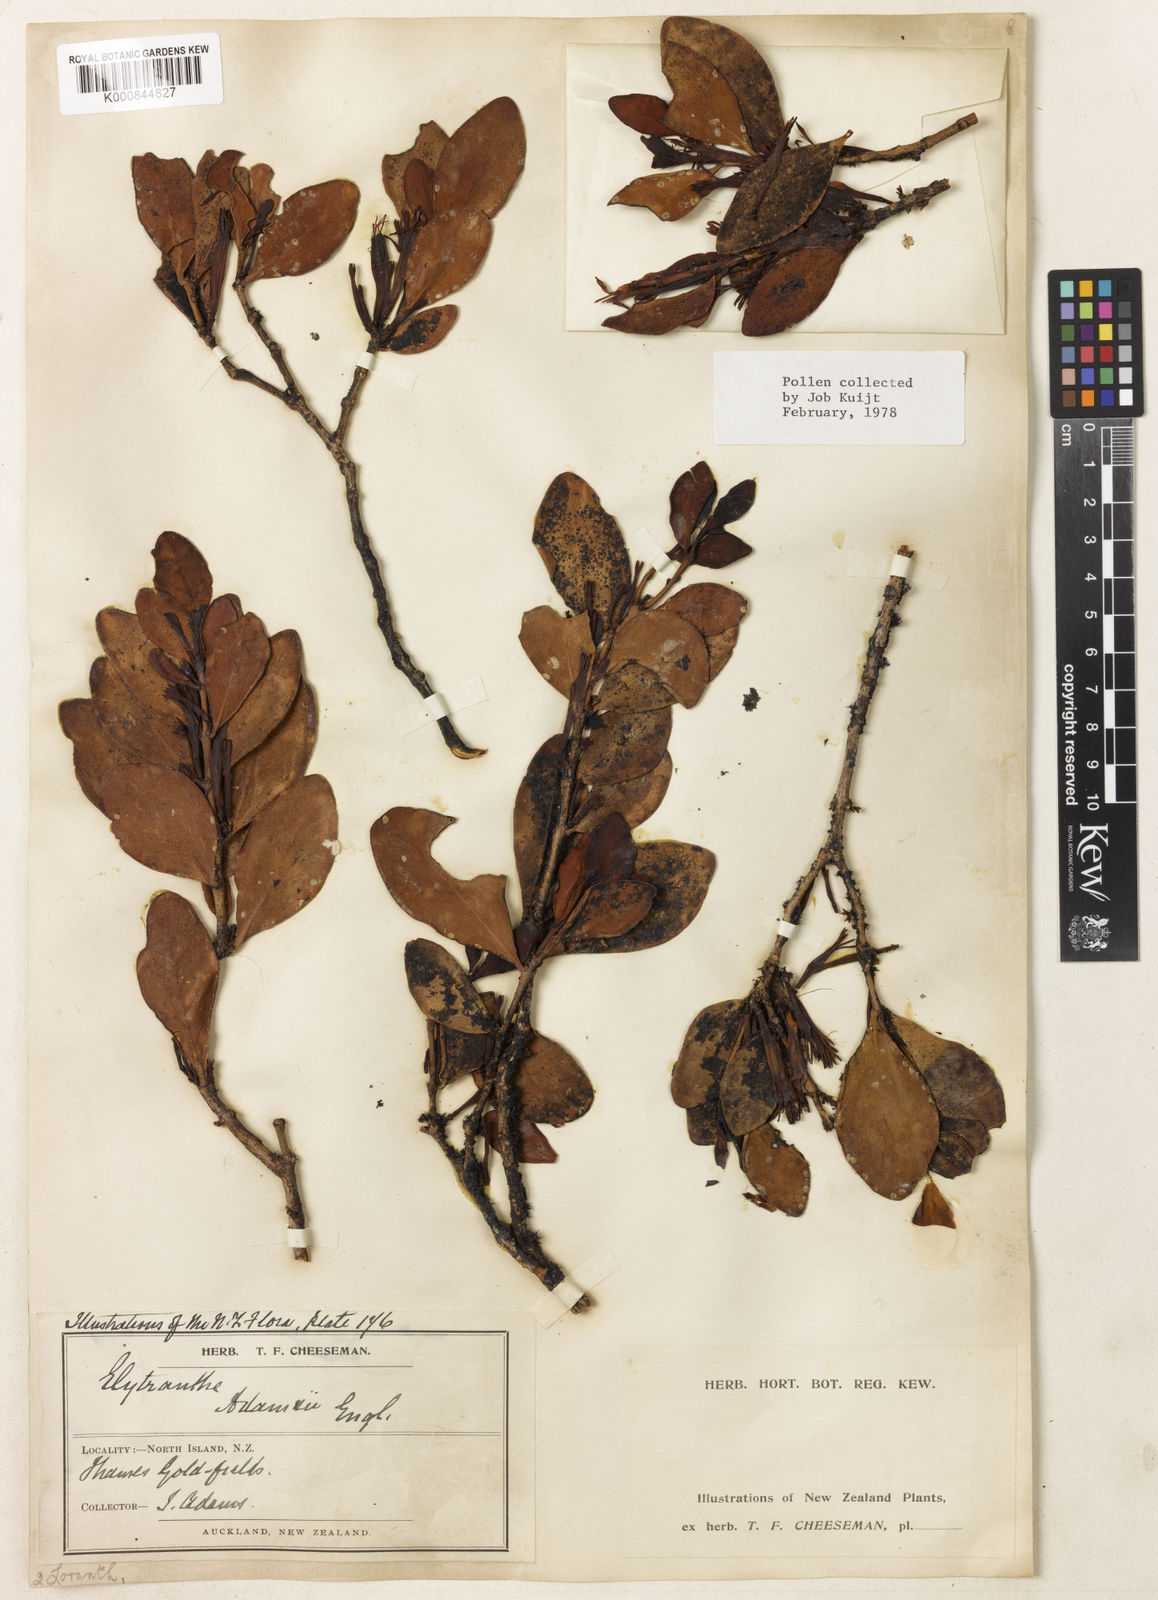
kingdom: Plantae
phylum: Tracheophyta
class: Magnoliopsida
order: Santalales
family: Loranthaceae
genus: Trilepidea
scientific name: Trilepidea adamsii
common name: Adams mistletoe
